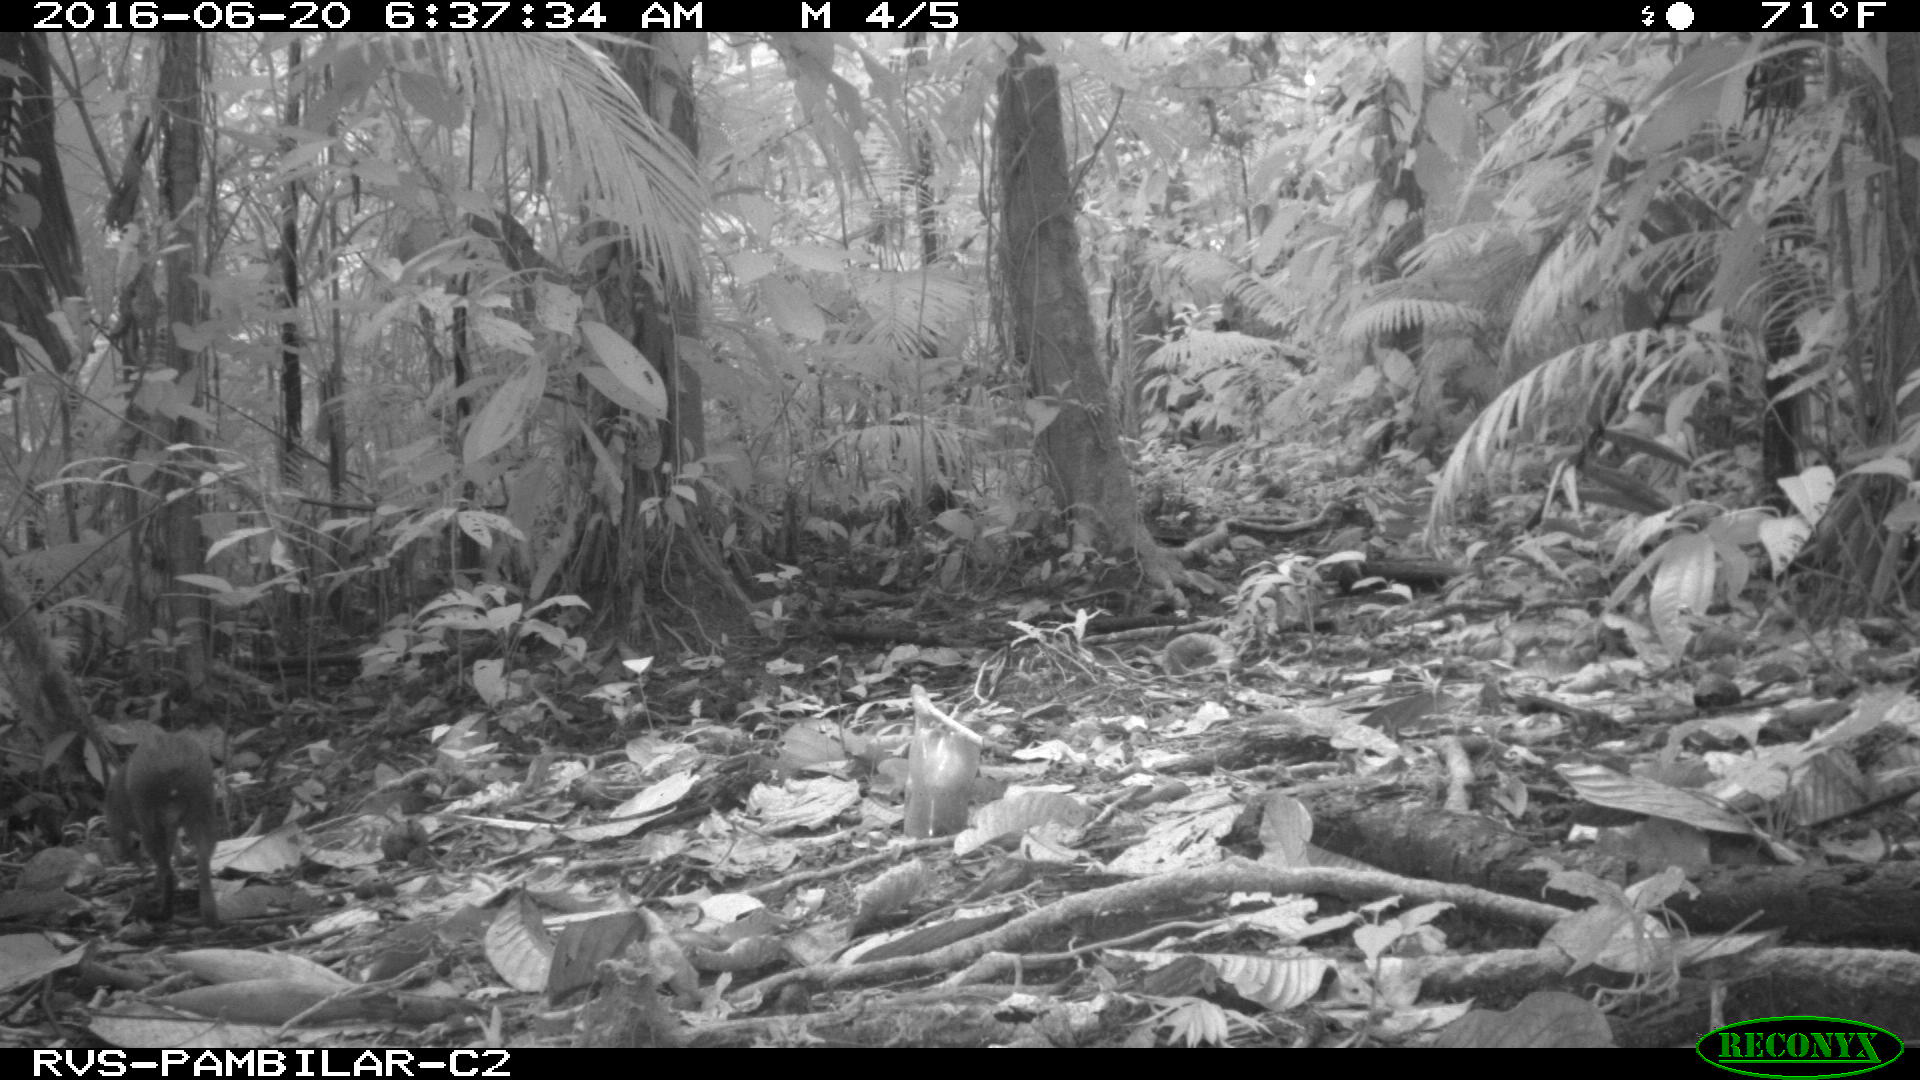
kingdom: Animalia
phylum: Chordata
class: Mammalia
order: Rodentia
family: Dasyproctidae
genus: Dasyprocta
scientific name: Dasyprocta punctata
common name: Central american agouti
